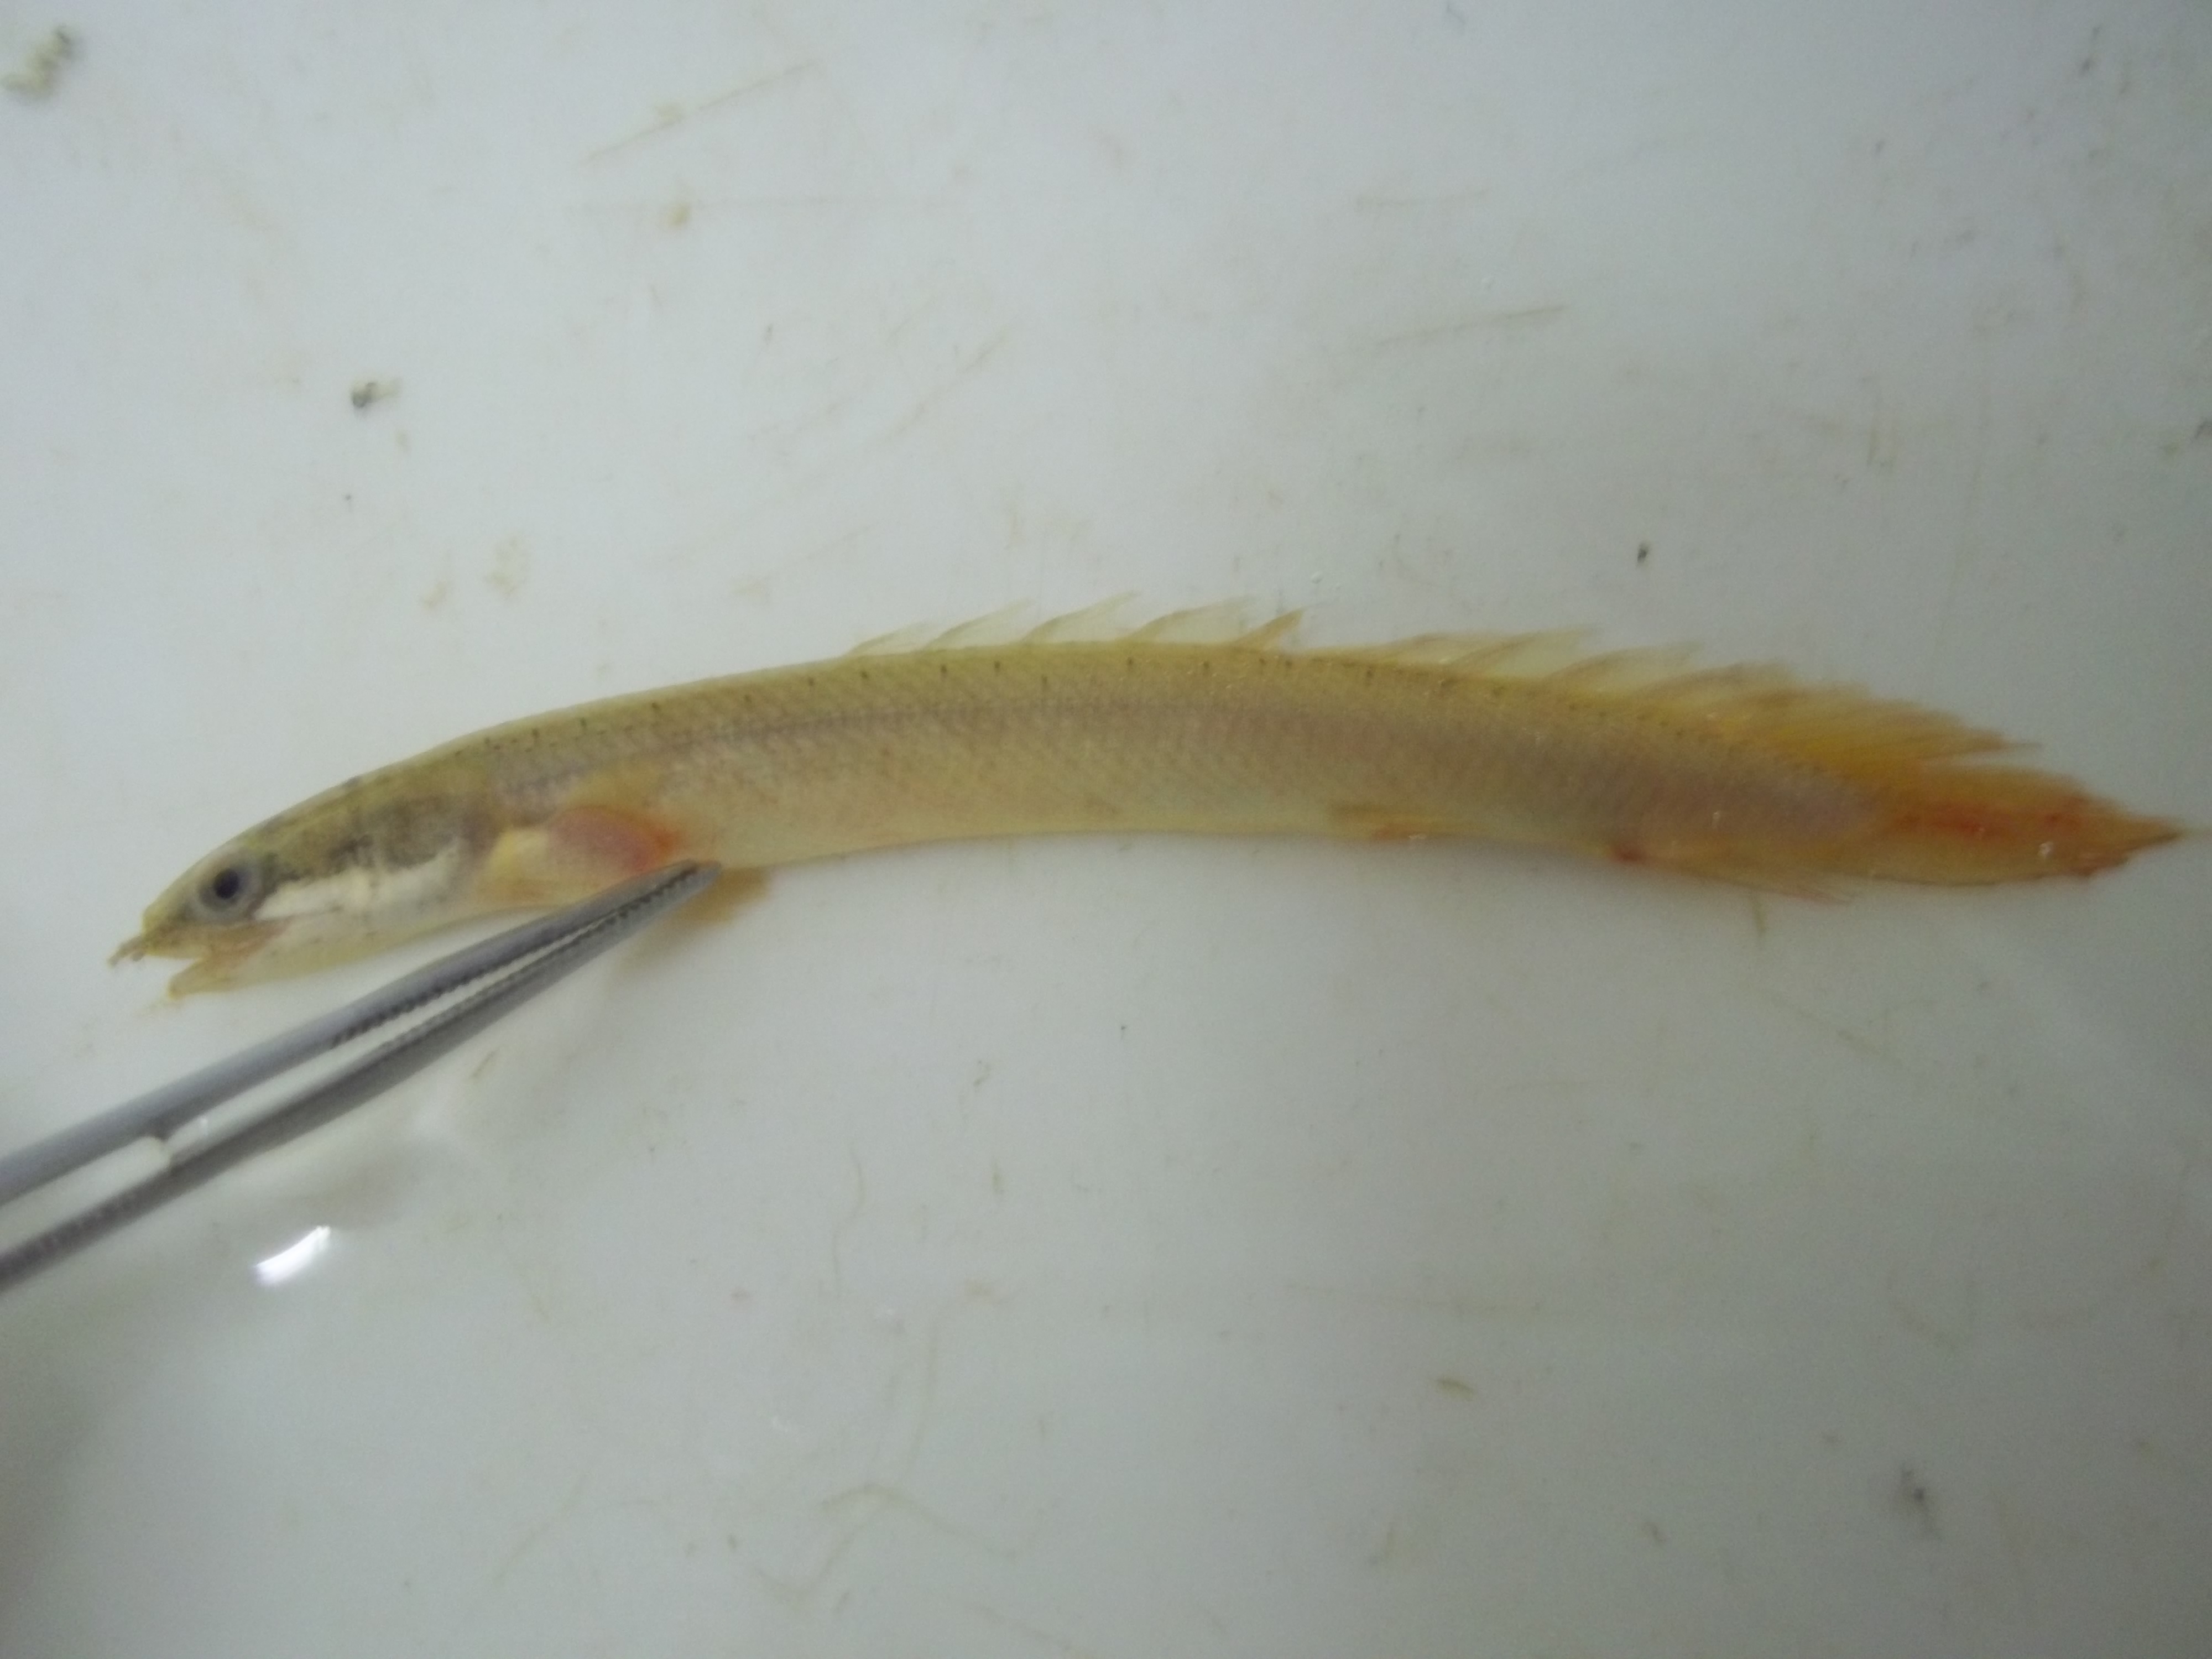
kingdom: Animalia
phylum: Chordata
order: Polypteriformes
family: Polypteridae
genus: Polypterus
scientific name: Polypterus senegalus
